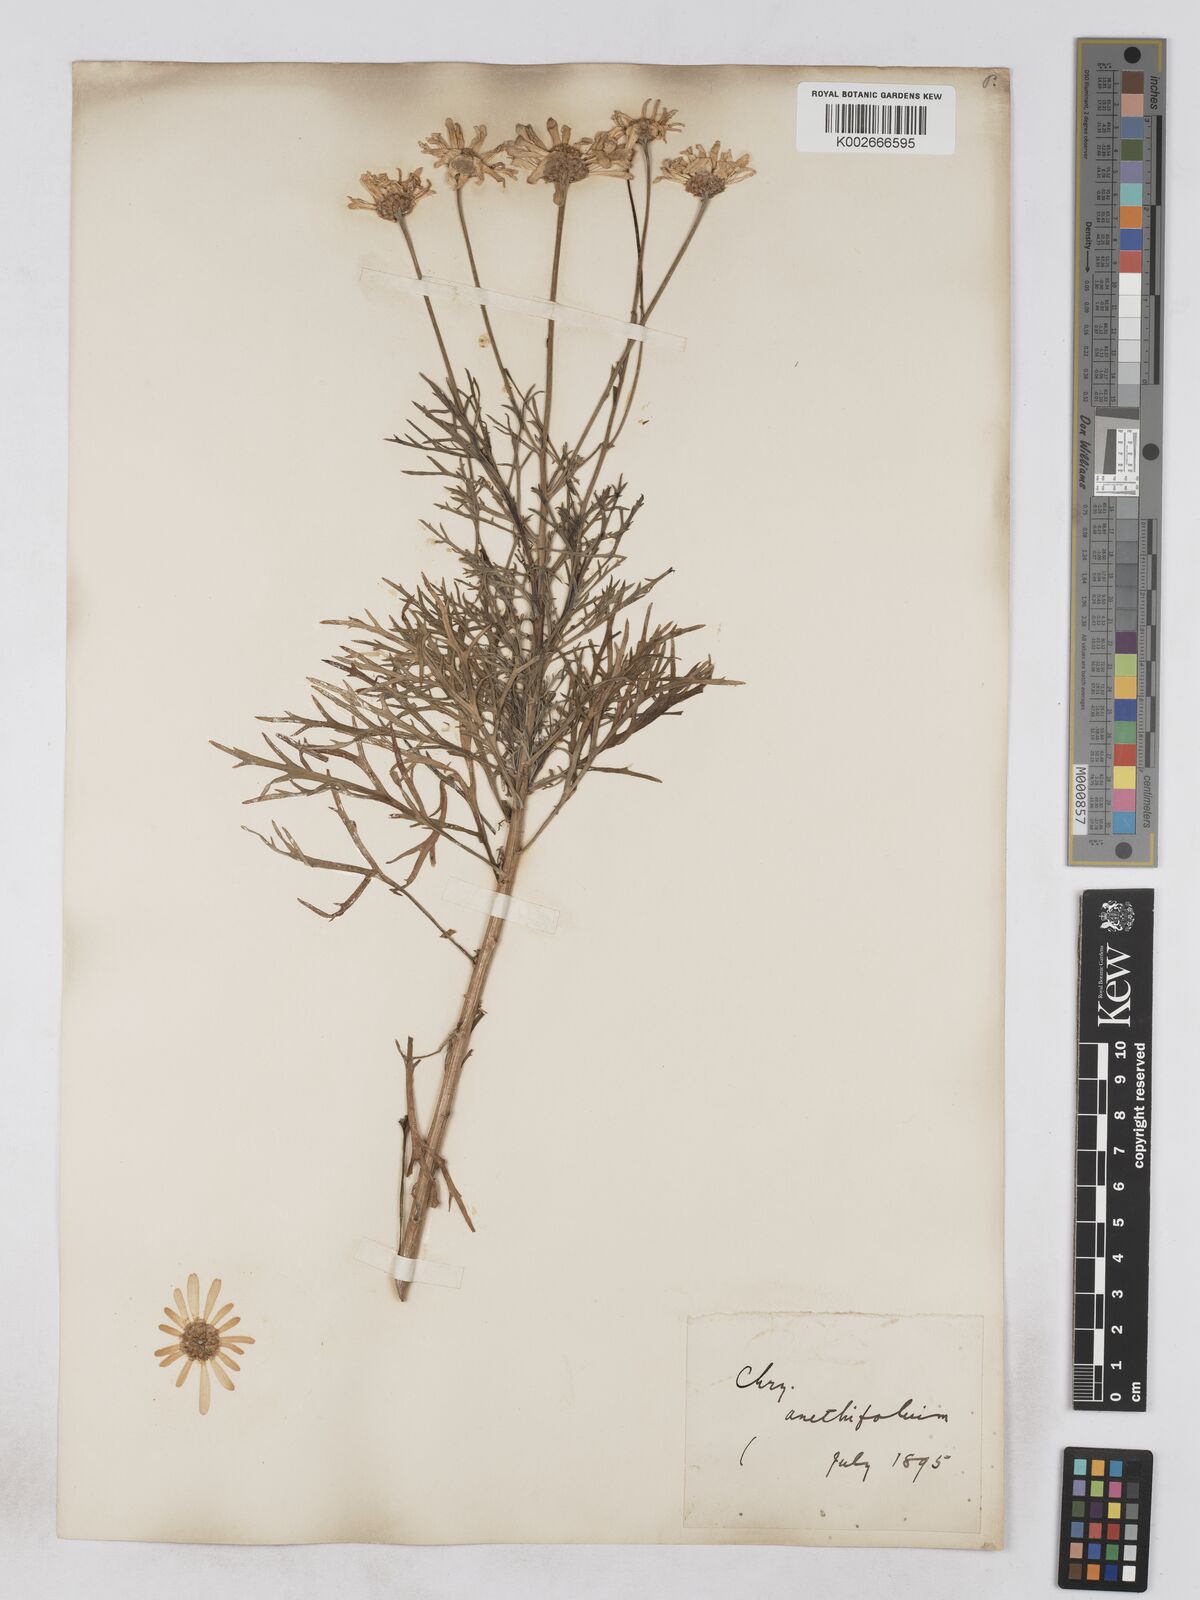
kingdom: Plantae
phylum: Tracheophyta
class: Magnoliopsida
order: Asterales
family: Asteraceae
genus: Argyranthemum
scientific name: Argyranthemum foeniculaceum
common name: Canary island marguerite
